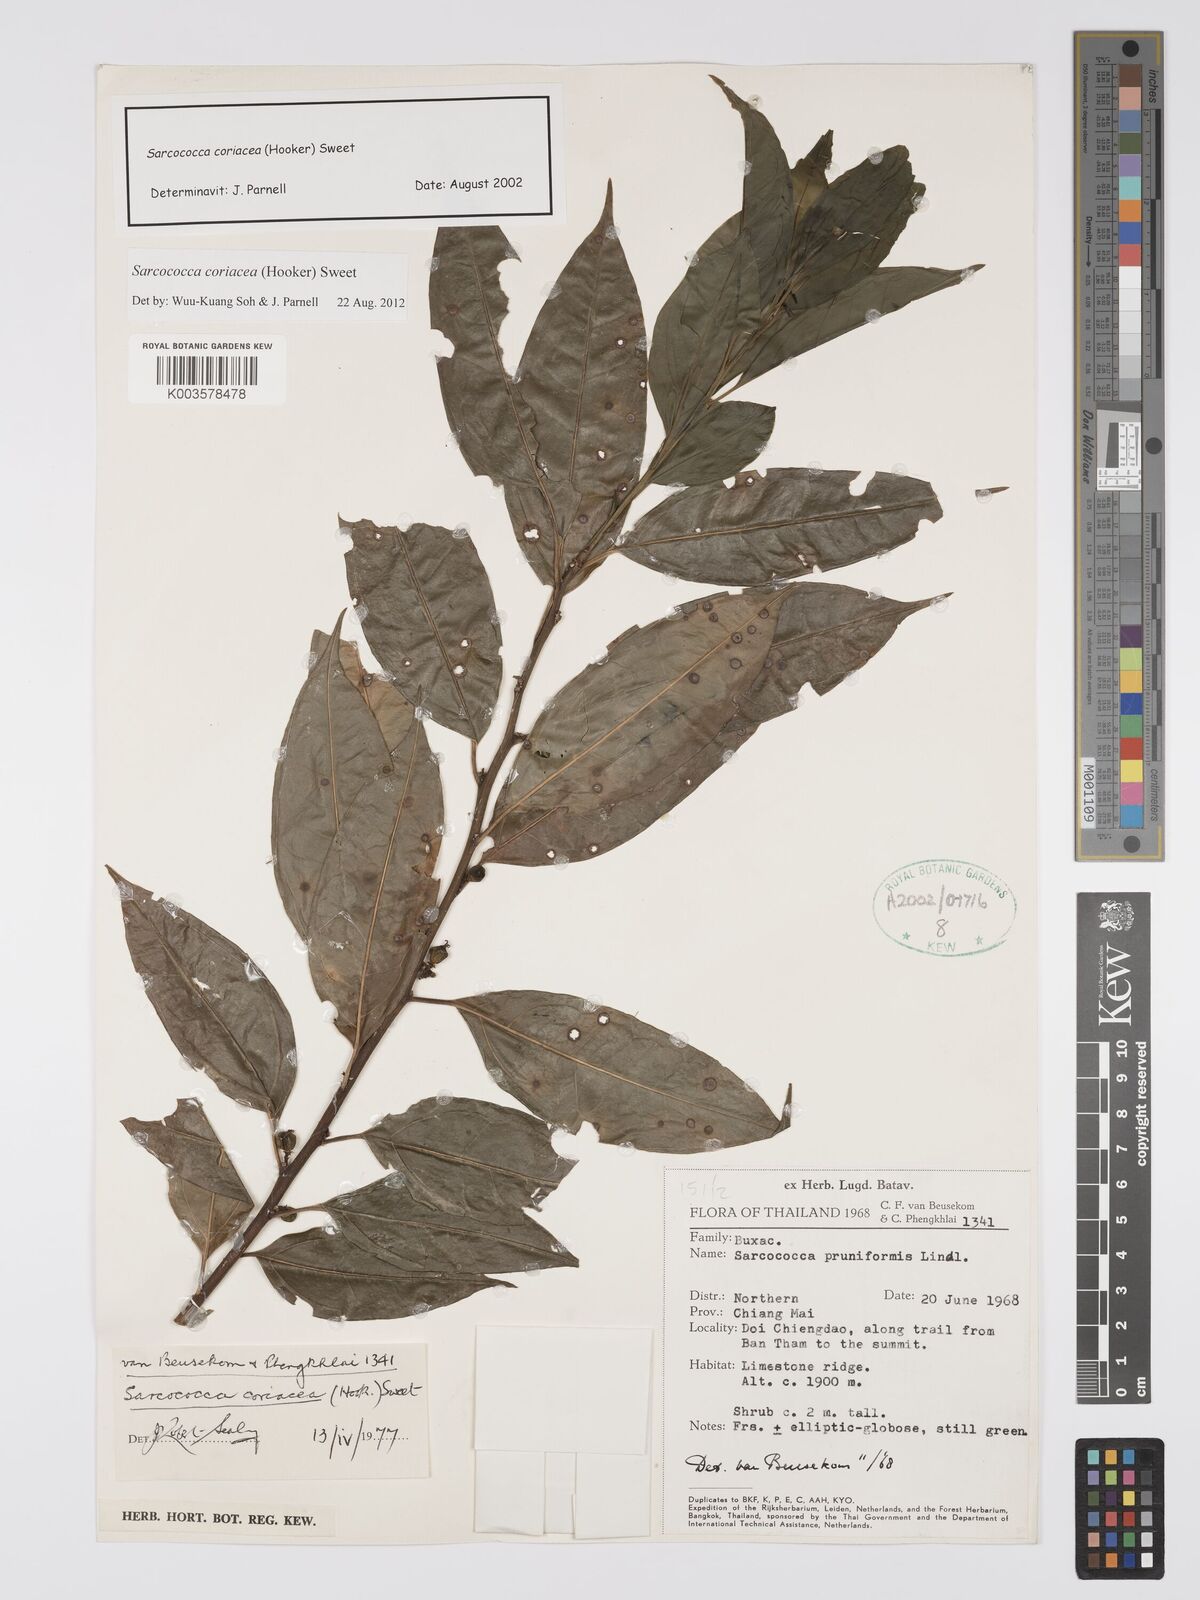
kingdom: Plantae
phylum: Tracheophyta
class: Magnoliopsida
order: Buxales
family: Buxaceae
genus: Sarcococca
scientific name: Sarcococca coriacea
